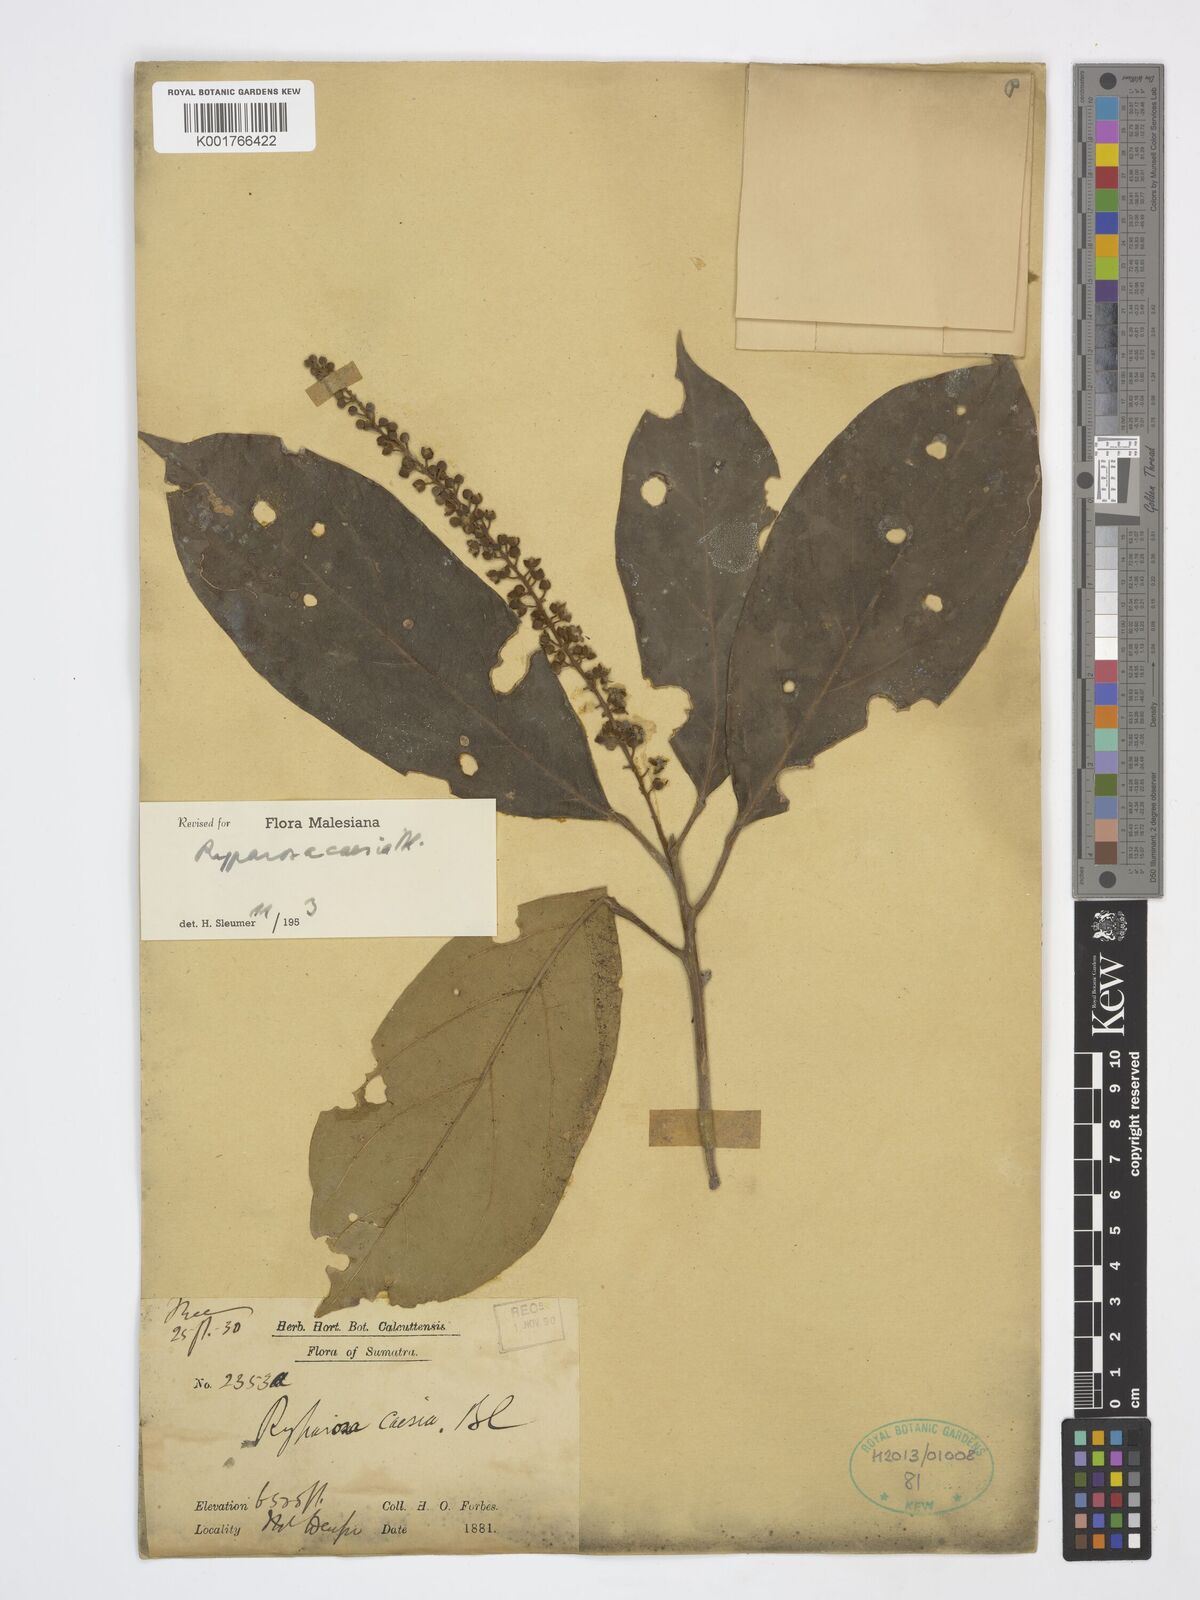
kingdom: Plantae
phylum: Tracheophyta
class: Magnoliopsida
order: Malpighiales
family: Achariaceae
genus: Ryparosa
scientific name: Ryparosa caesia
